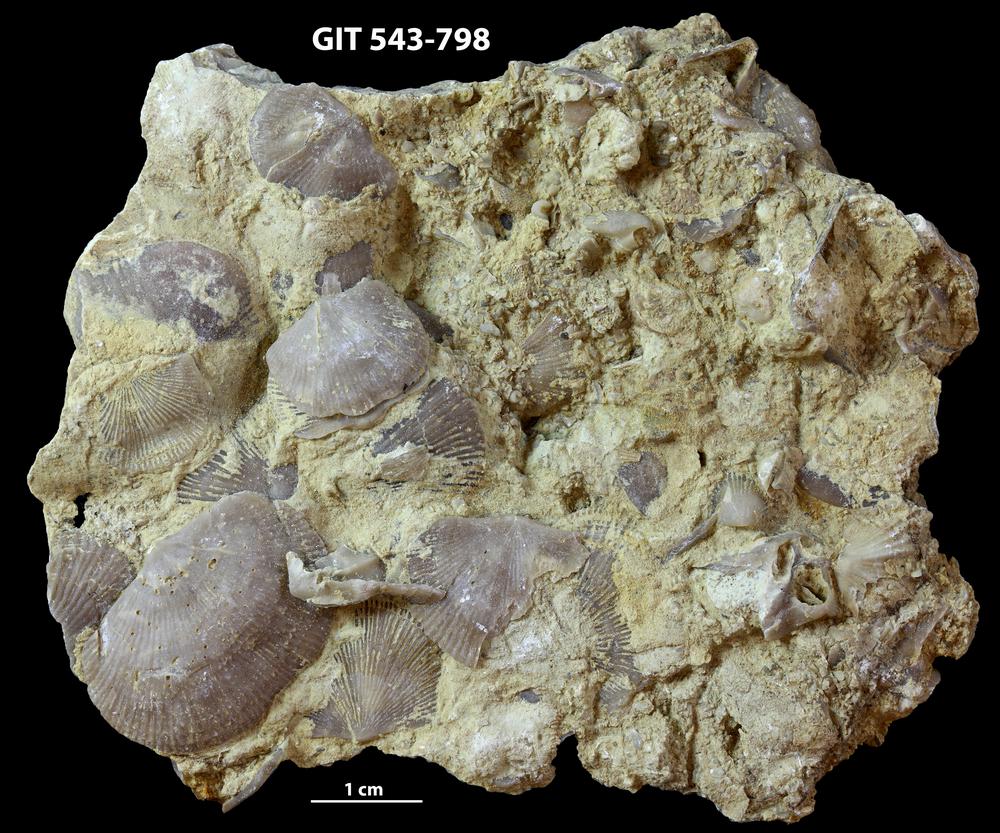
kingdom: Animalia
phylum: Brachiopoda
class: Rhynchonellata
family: Clitambonitidae
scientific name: Clitambonitidae
